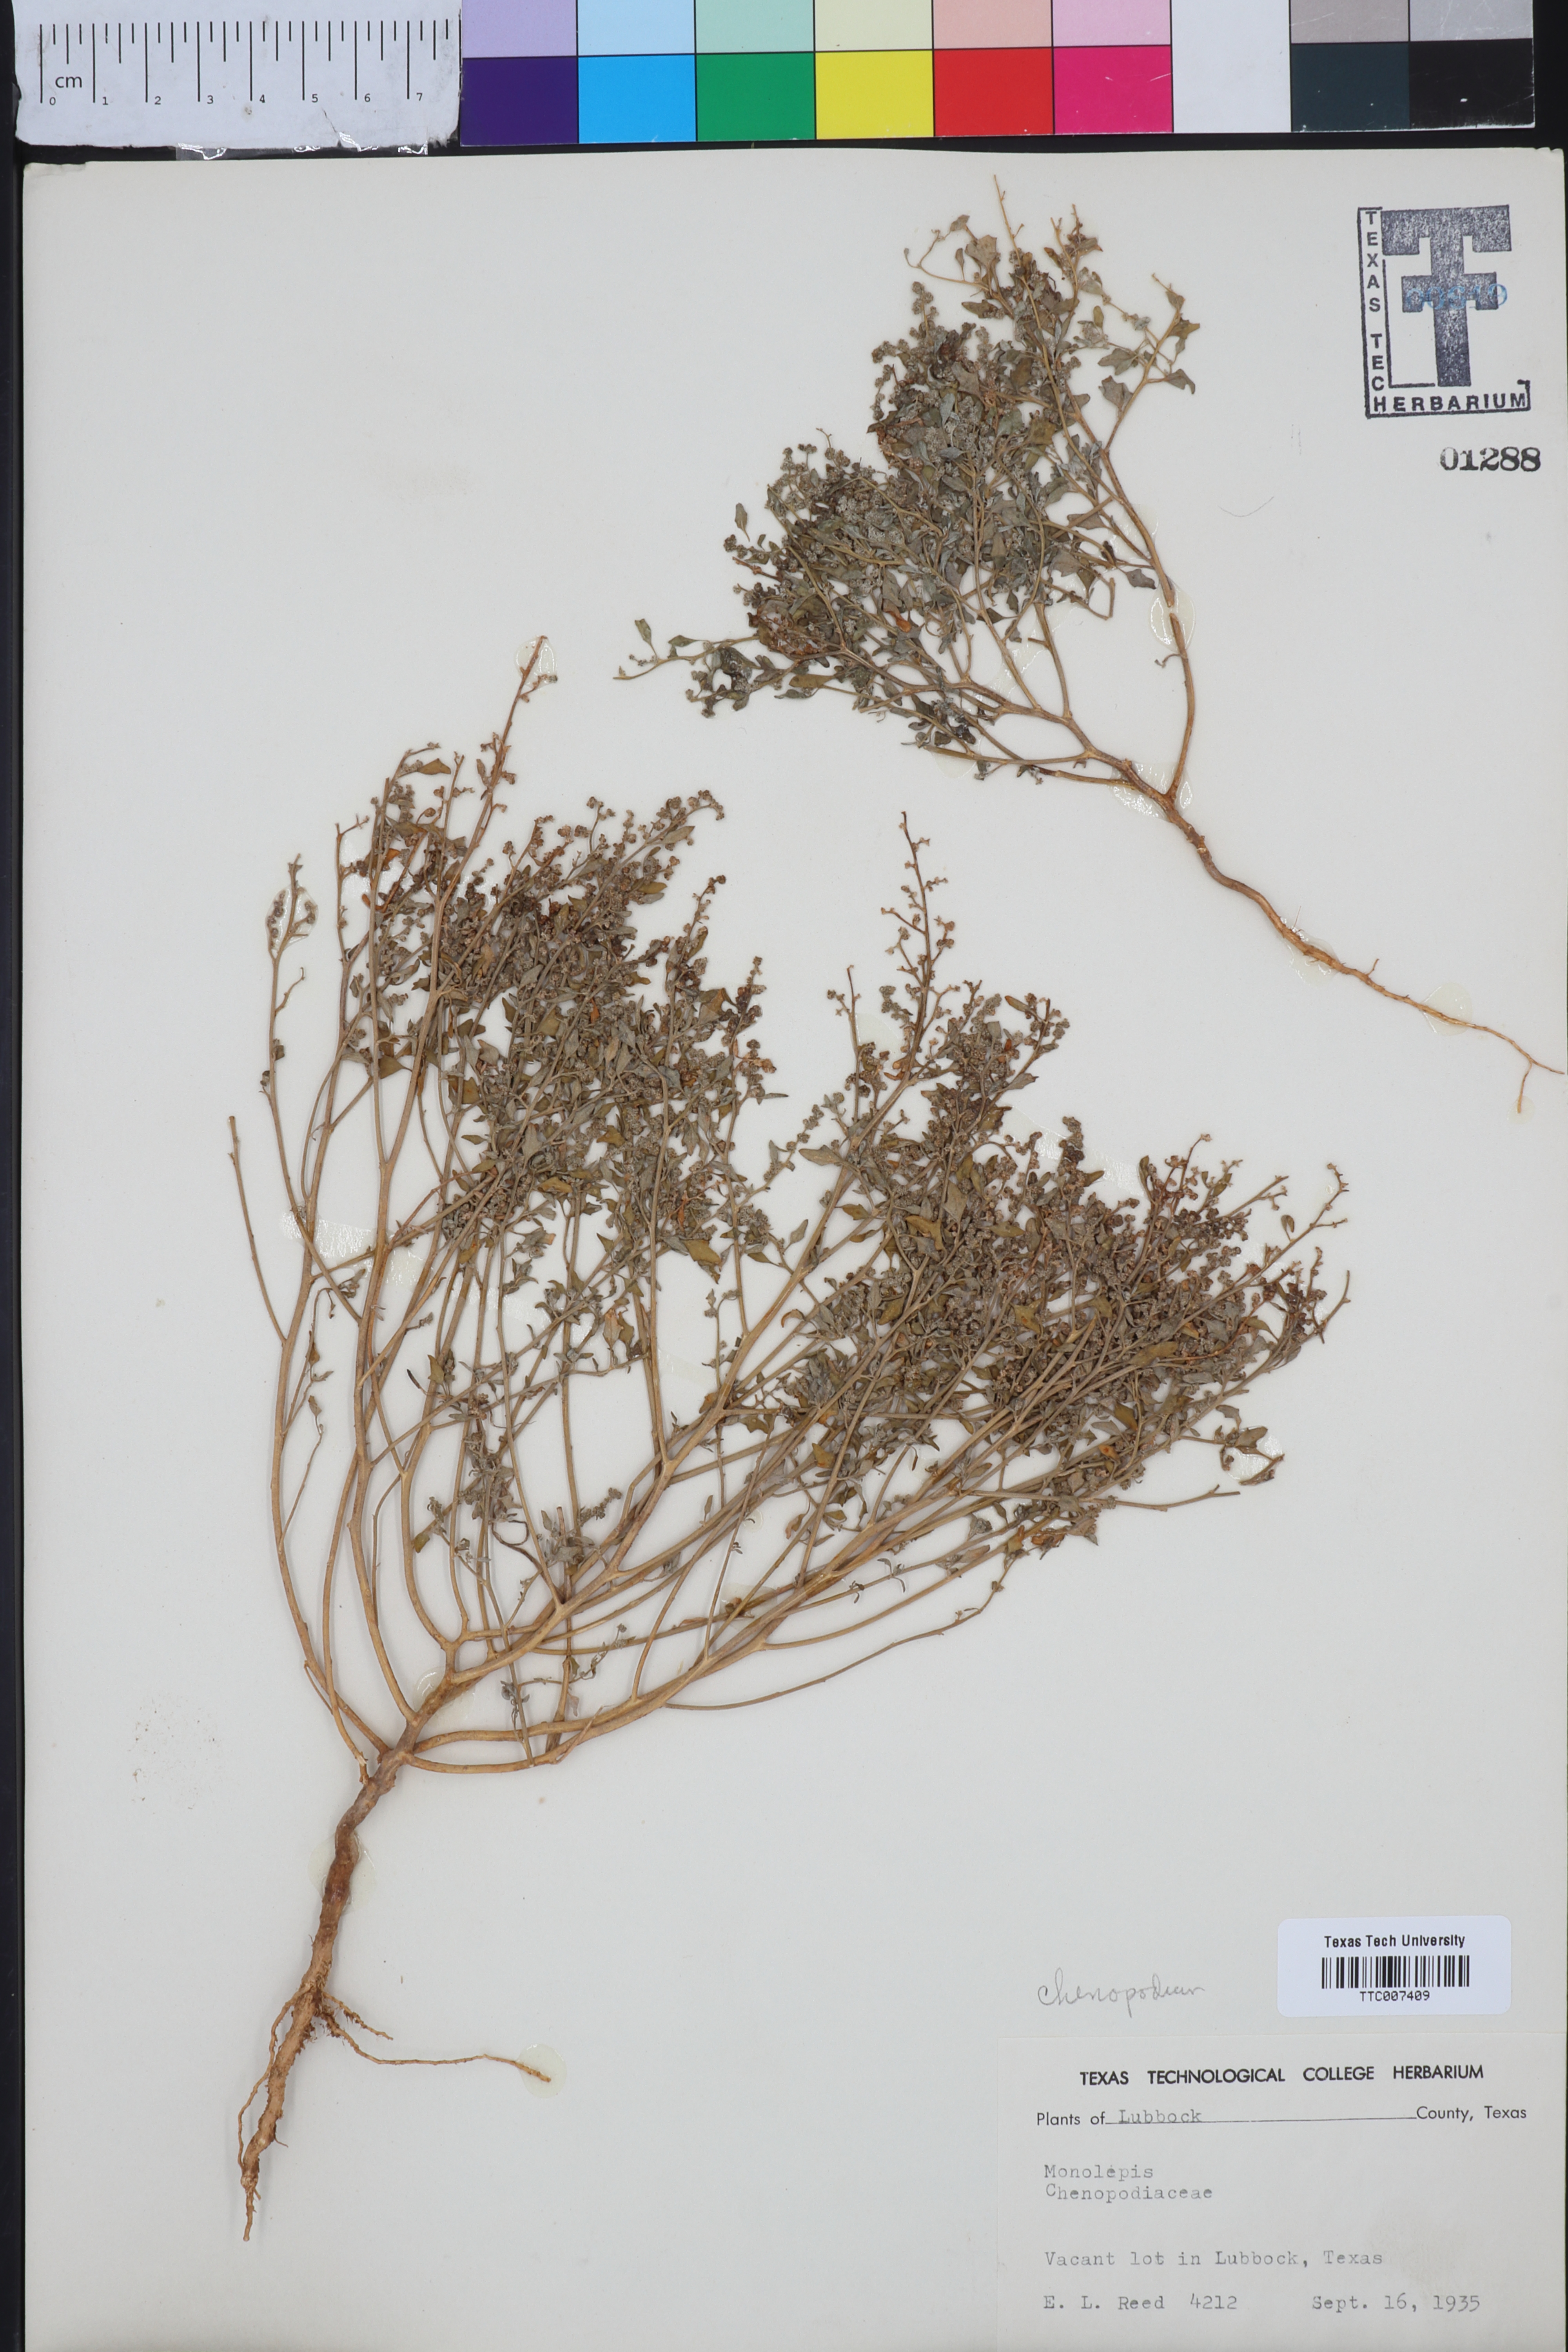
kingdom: Plantae
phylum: Tracheophyta
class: Magnoliopsida
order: Caryophyllales
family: Amaranthaceae
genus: Blitum
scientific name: Blitum
